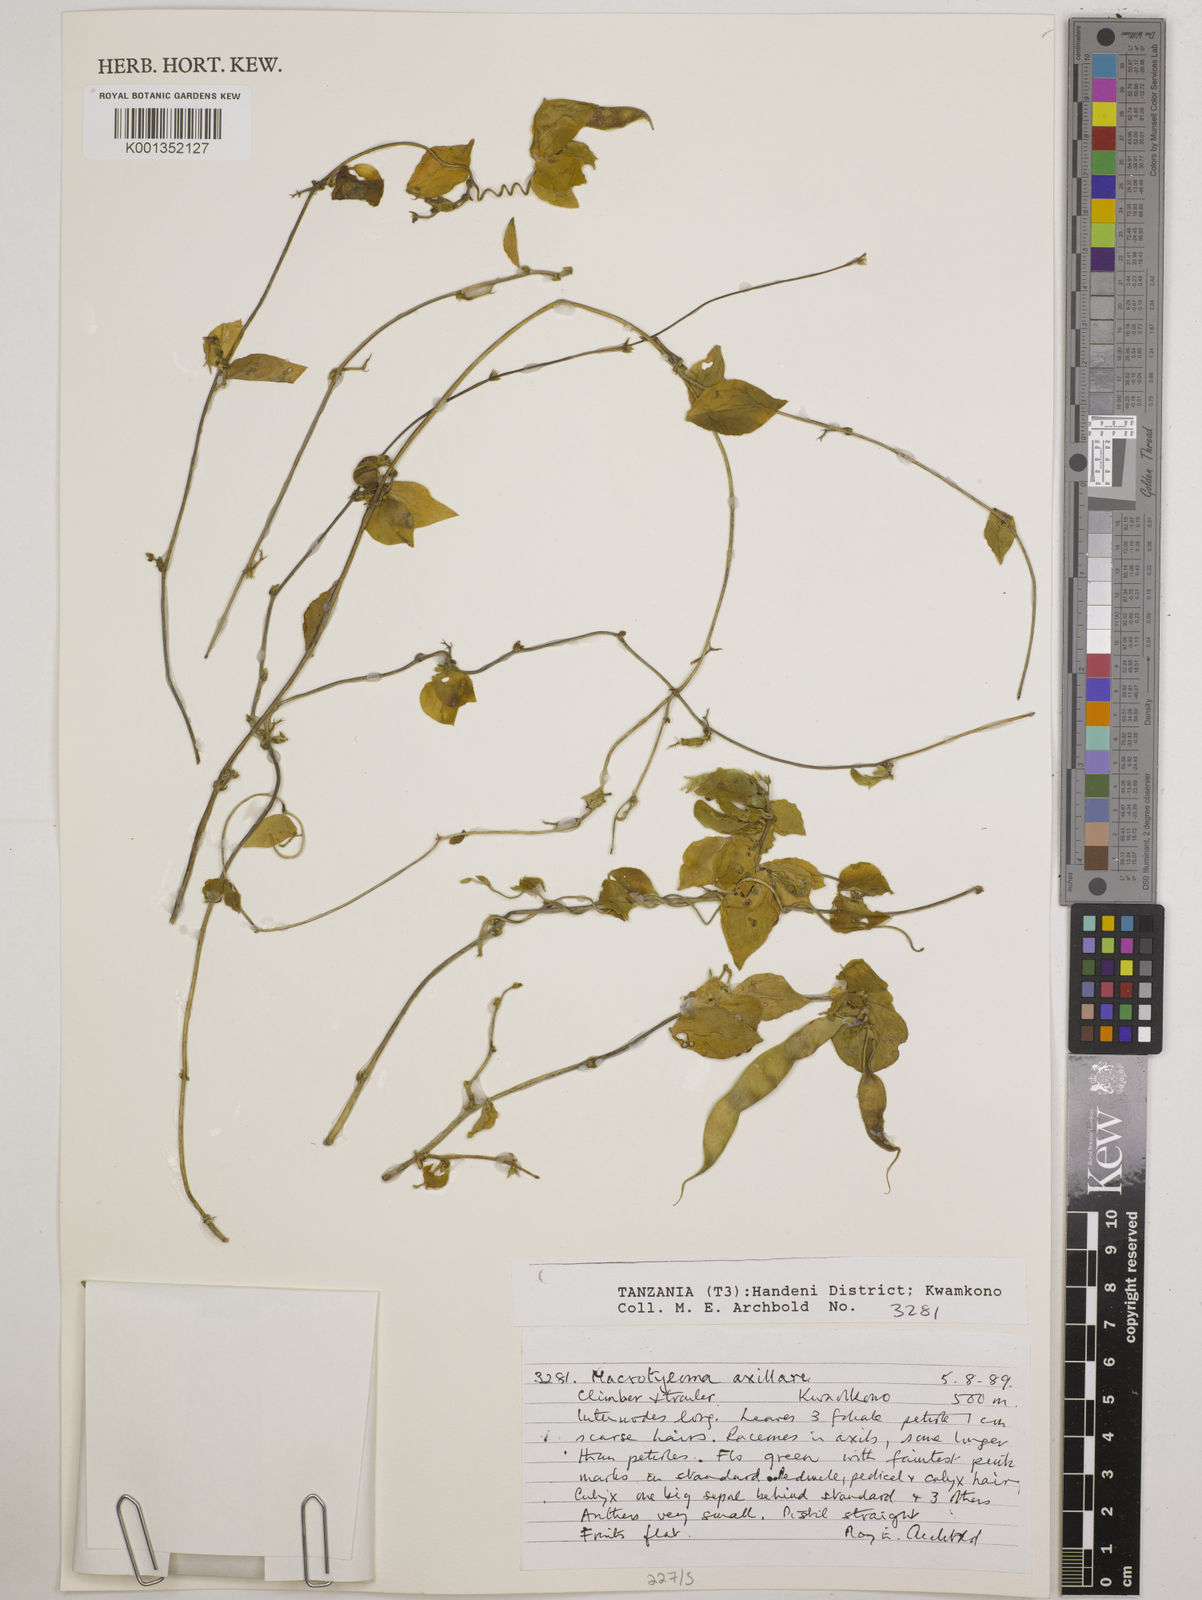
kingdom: Plantae
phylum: Tracheophyta
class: Magnoliopsida
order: Fabales
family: Fabaceae
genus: Macrotyloma
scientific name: Macrotyloma axillare
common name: Perennial horsegram
